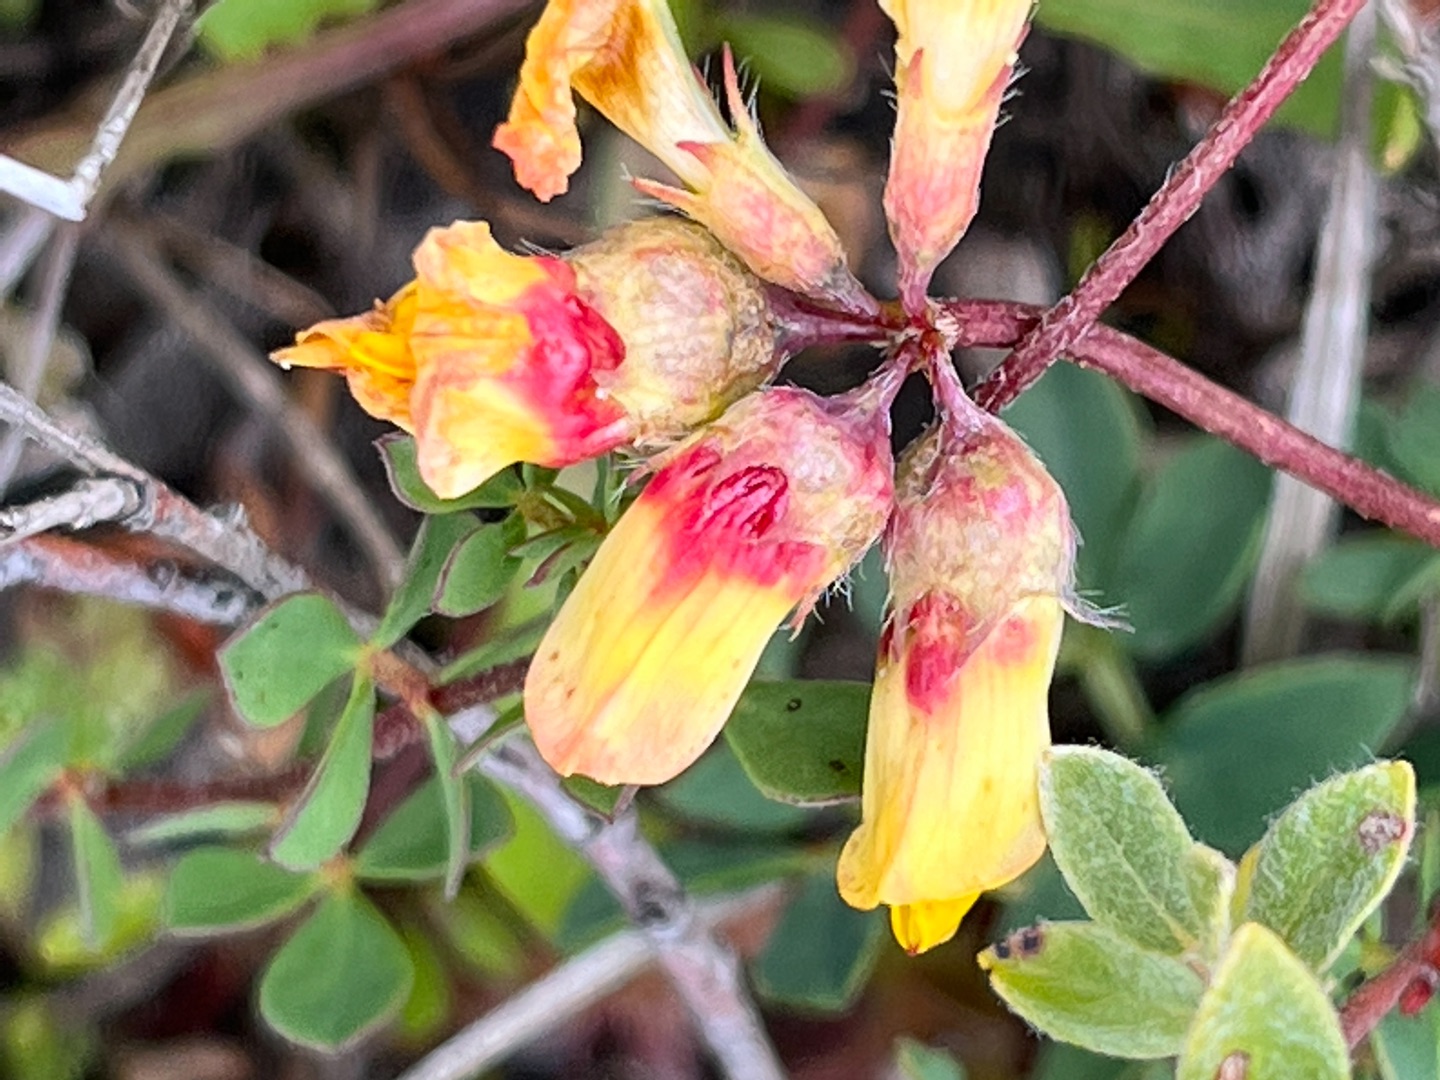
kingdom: Animalia
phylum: Arthropoda
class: Insecta
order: Diptera
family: Cecidomyiidae
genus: Contarinia
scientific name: Contarinia loti
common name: Kællingetandblomstgalmyg
